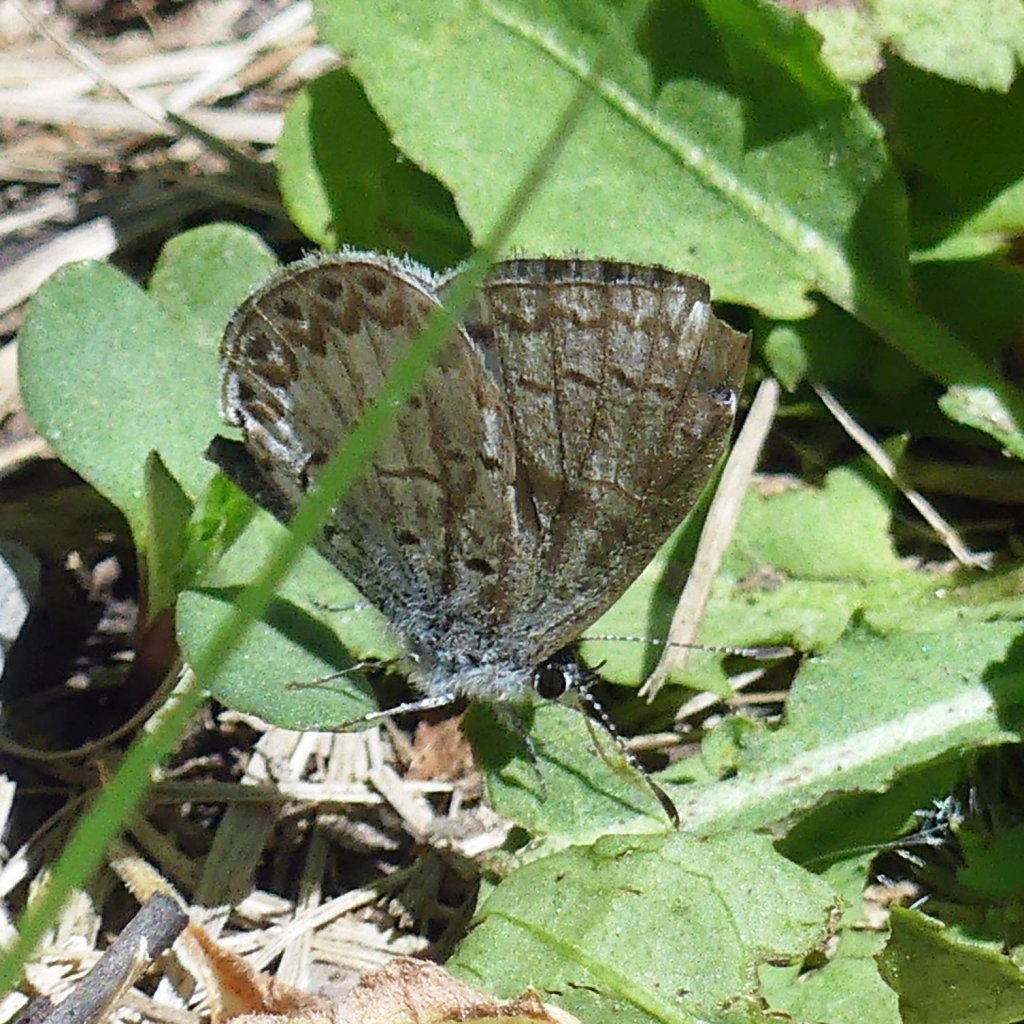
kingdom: Animalia
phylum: Arthropoda
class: Insecta
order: Lepidoptera
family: Lycaenidae
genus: Celastrina
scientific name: Celastrina lucia
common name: Northern Spring Azure
